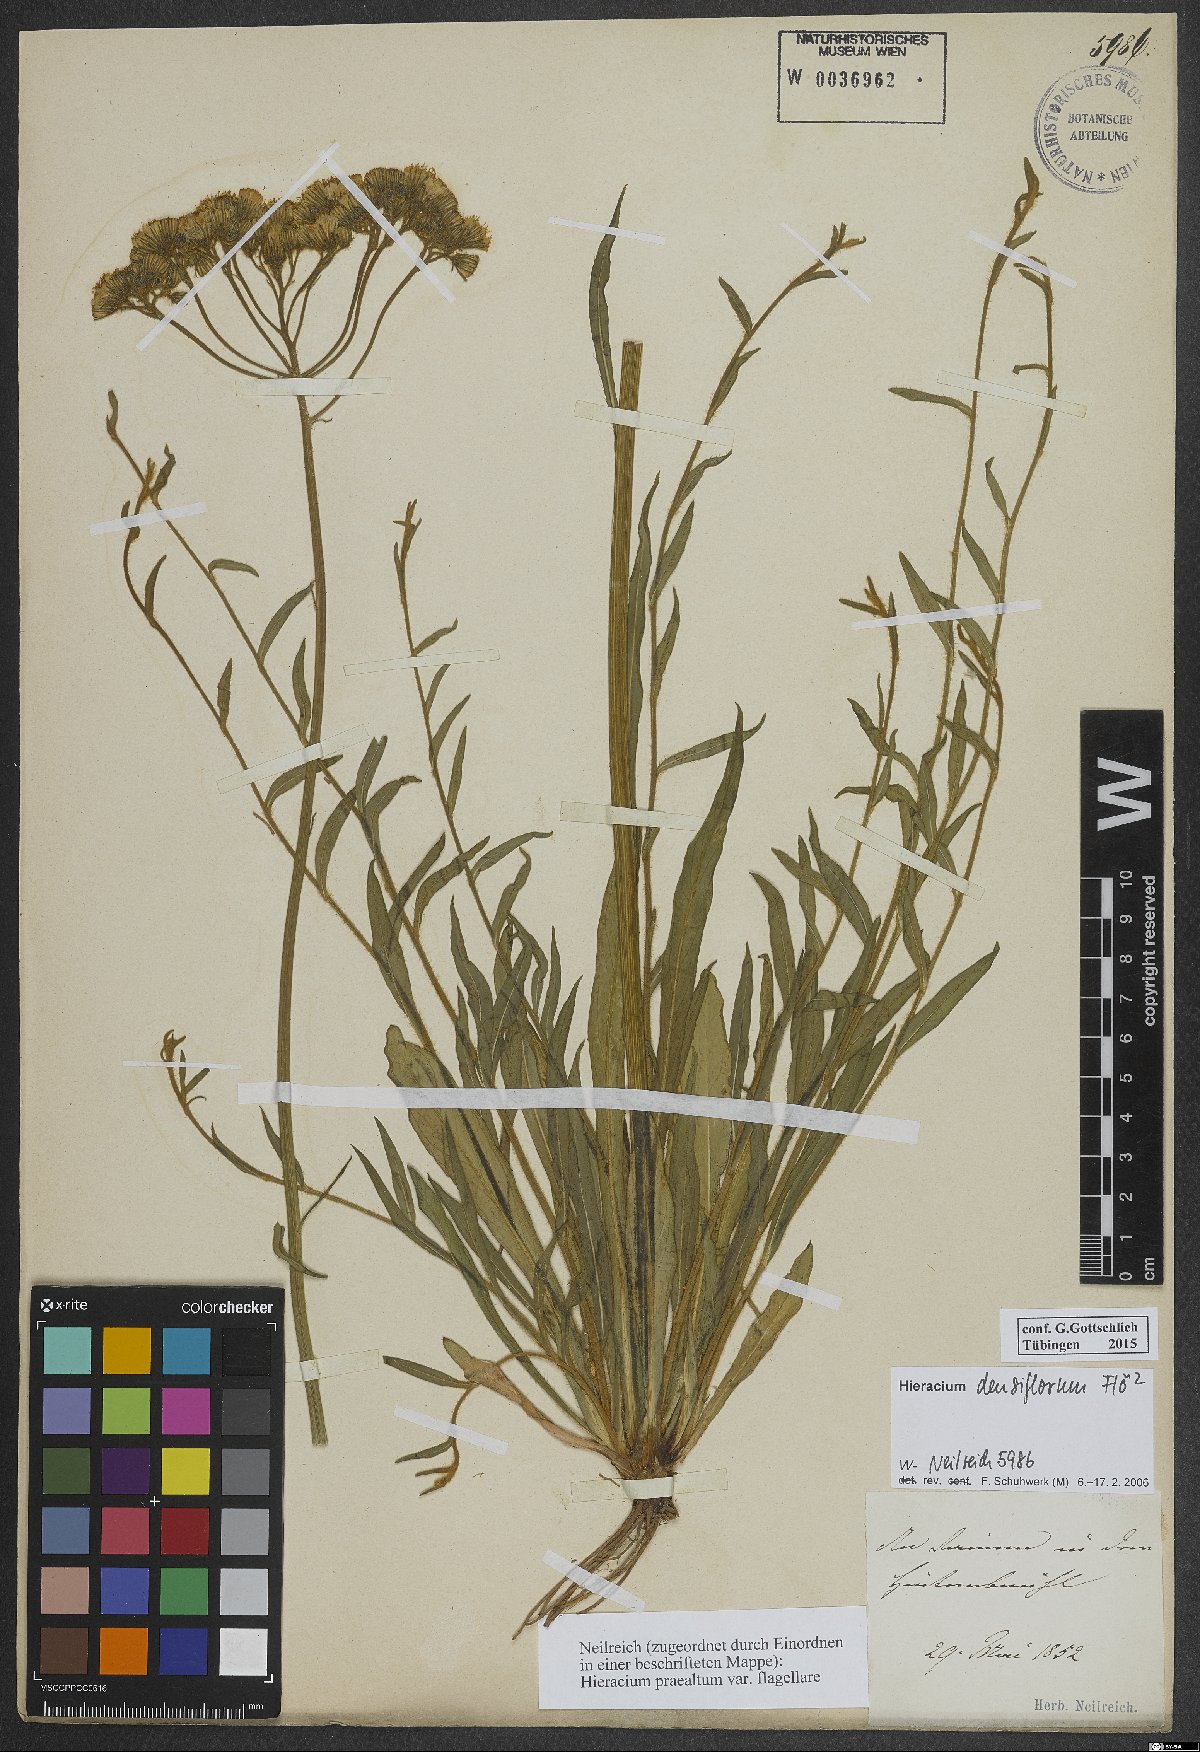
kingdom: Plantae
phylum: Tracheophyta
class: Magnoliopsida
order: Asterales
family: Asteraceae
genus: Pilosella
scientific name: Pilosella densiflora
